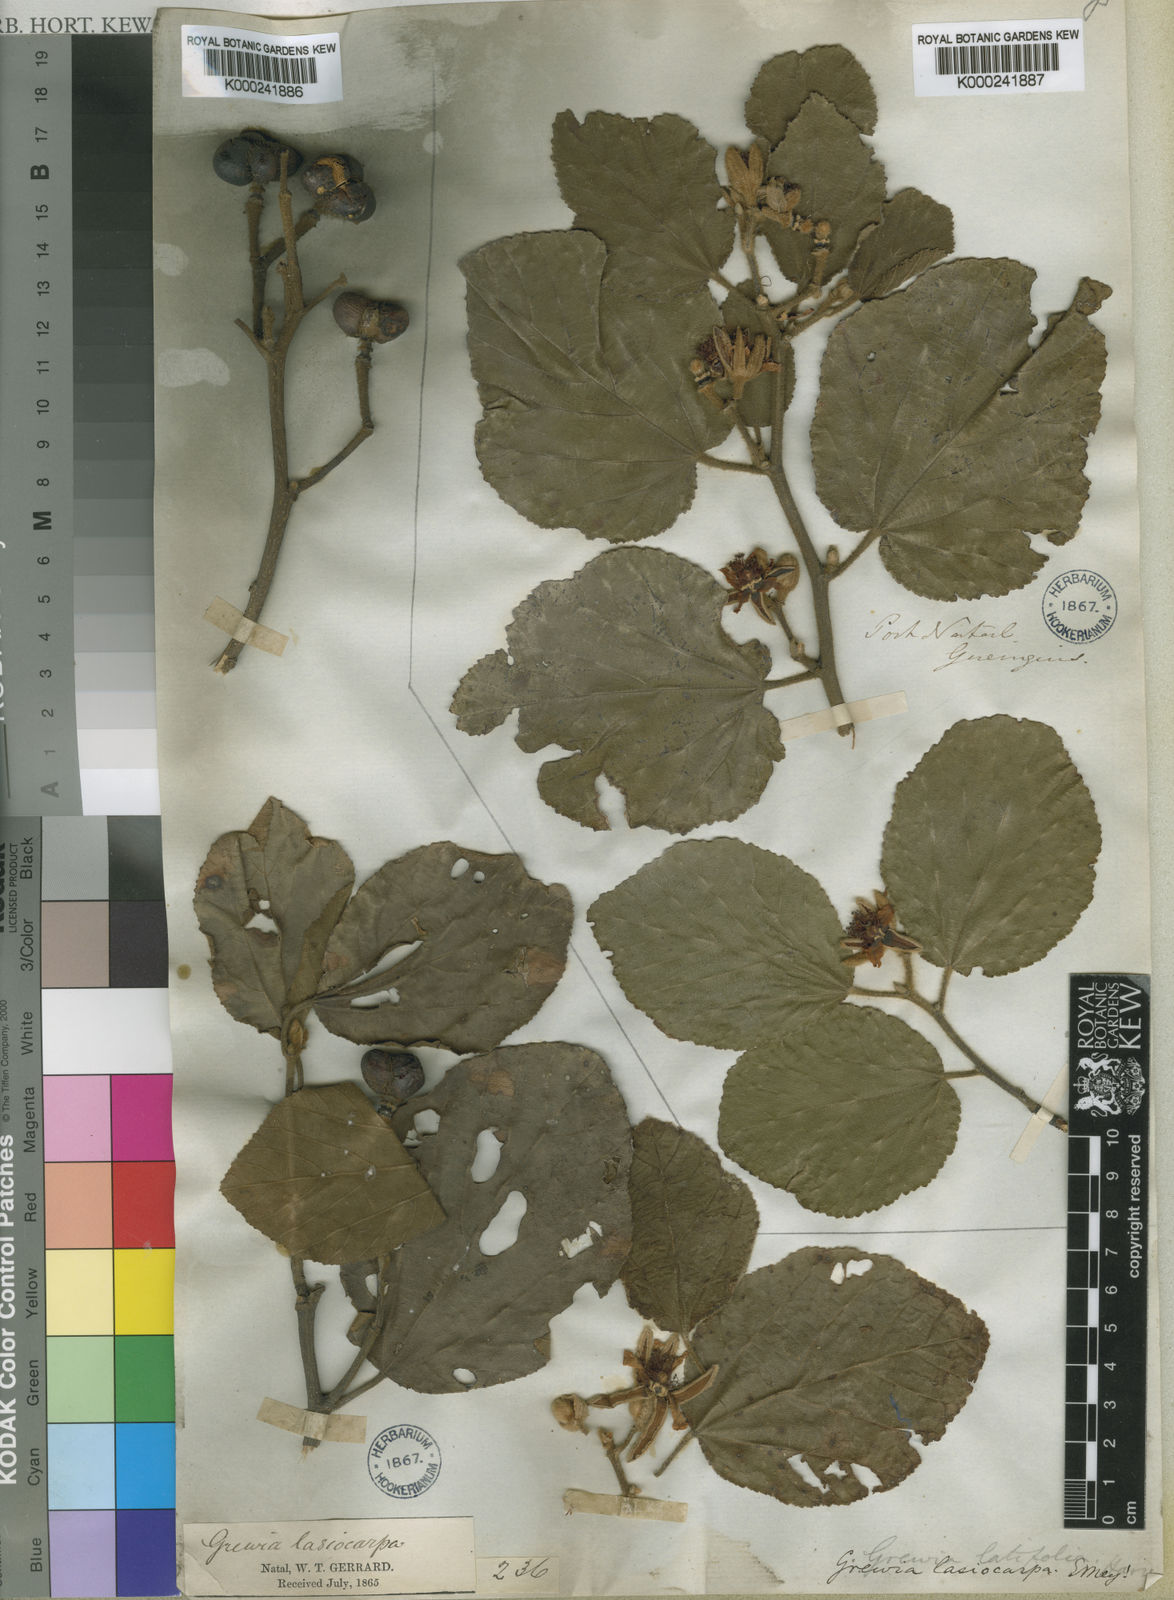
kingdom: Plantae
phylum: Tracheophyta
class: Magnoliopsida
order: Malvales
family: Malvaceae
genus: Grewia
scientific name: Grewia lasiocarpa
